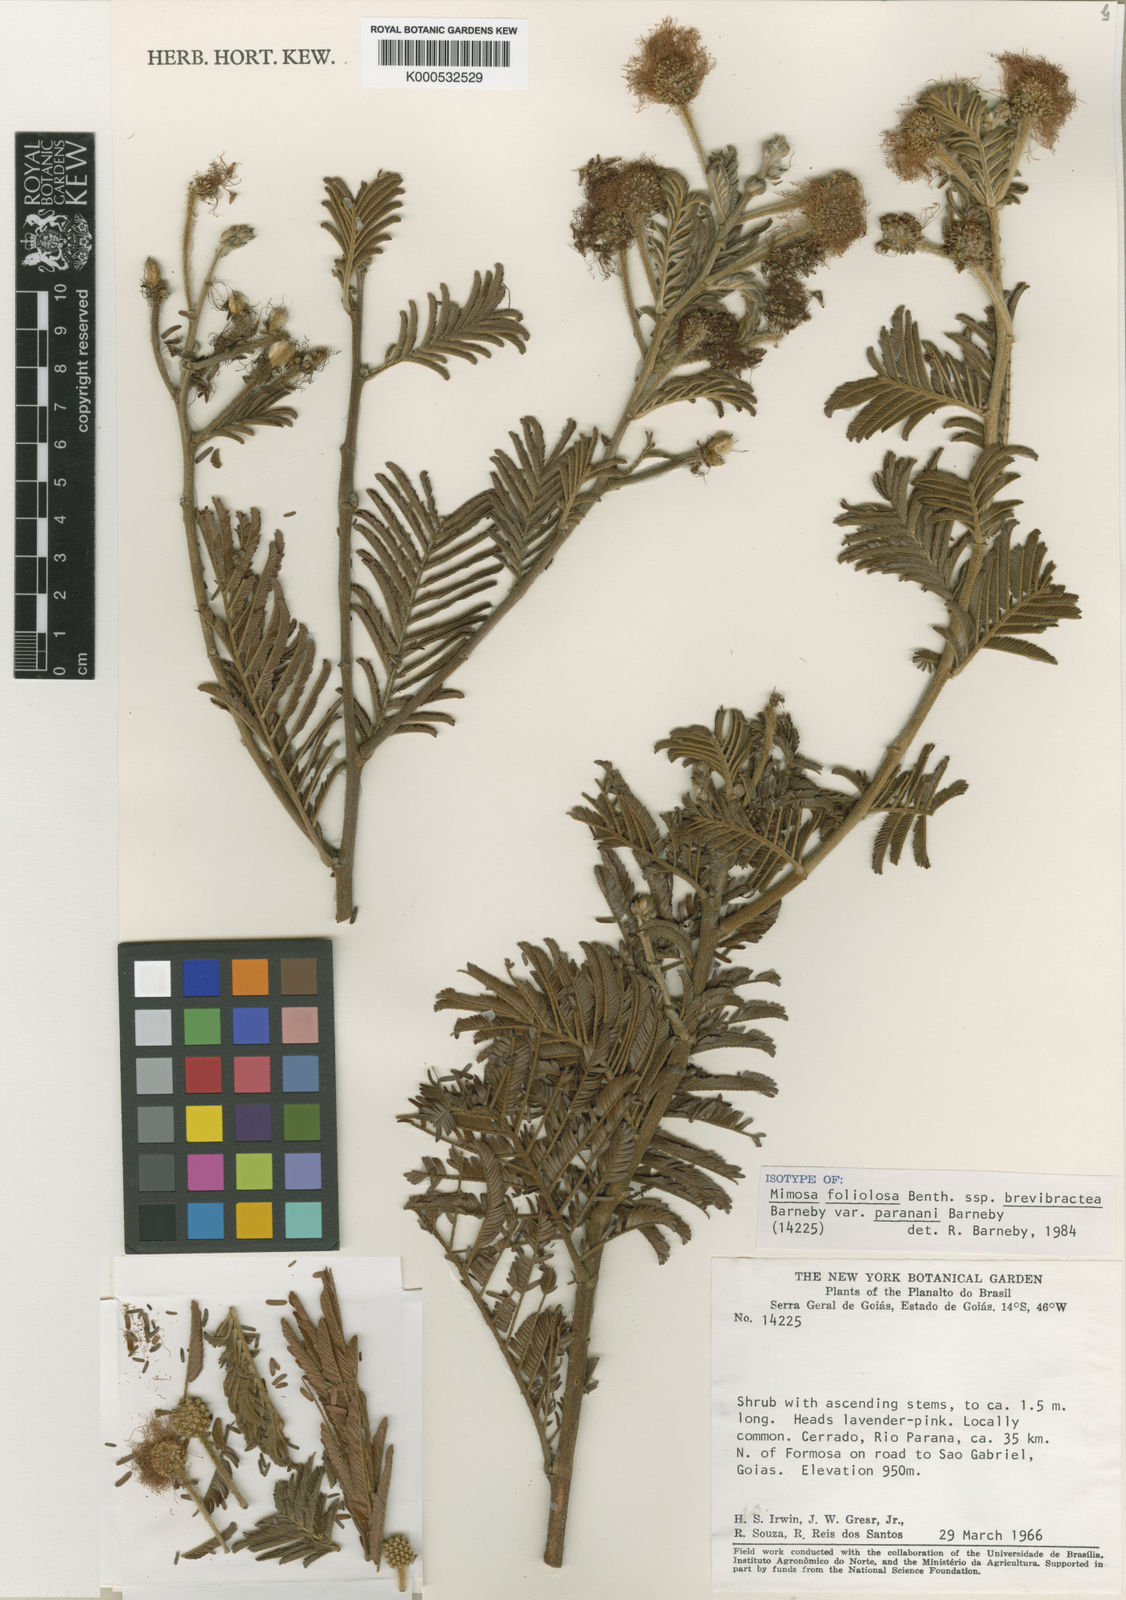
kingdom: Plantae
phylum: Tracheophyta
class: Magnoliopsida
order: Fabales
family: Fabaceae
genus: Mimosa
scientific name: Mimosa foliolosa
